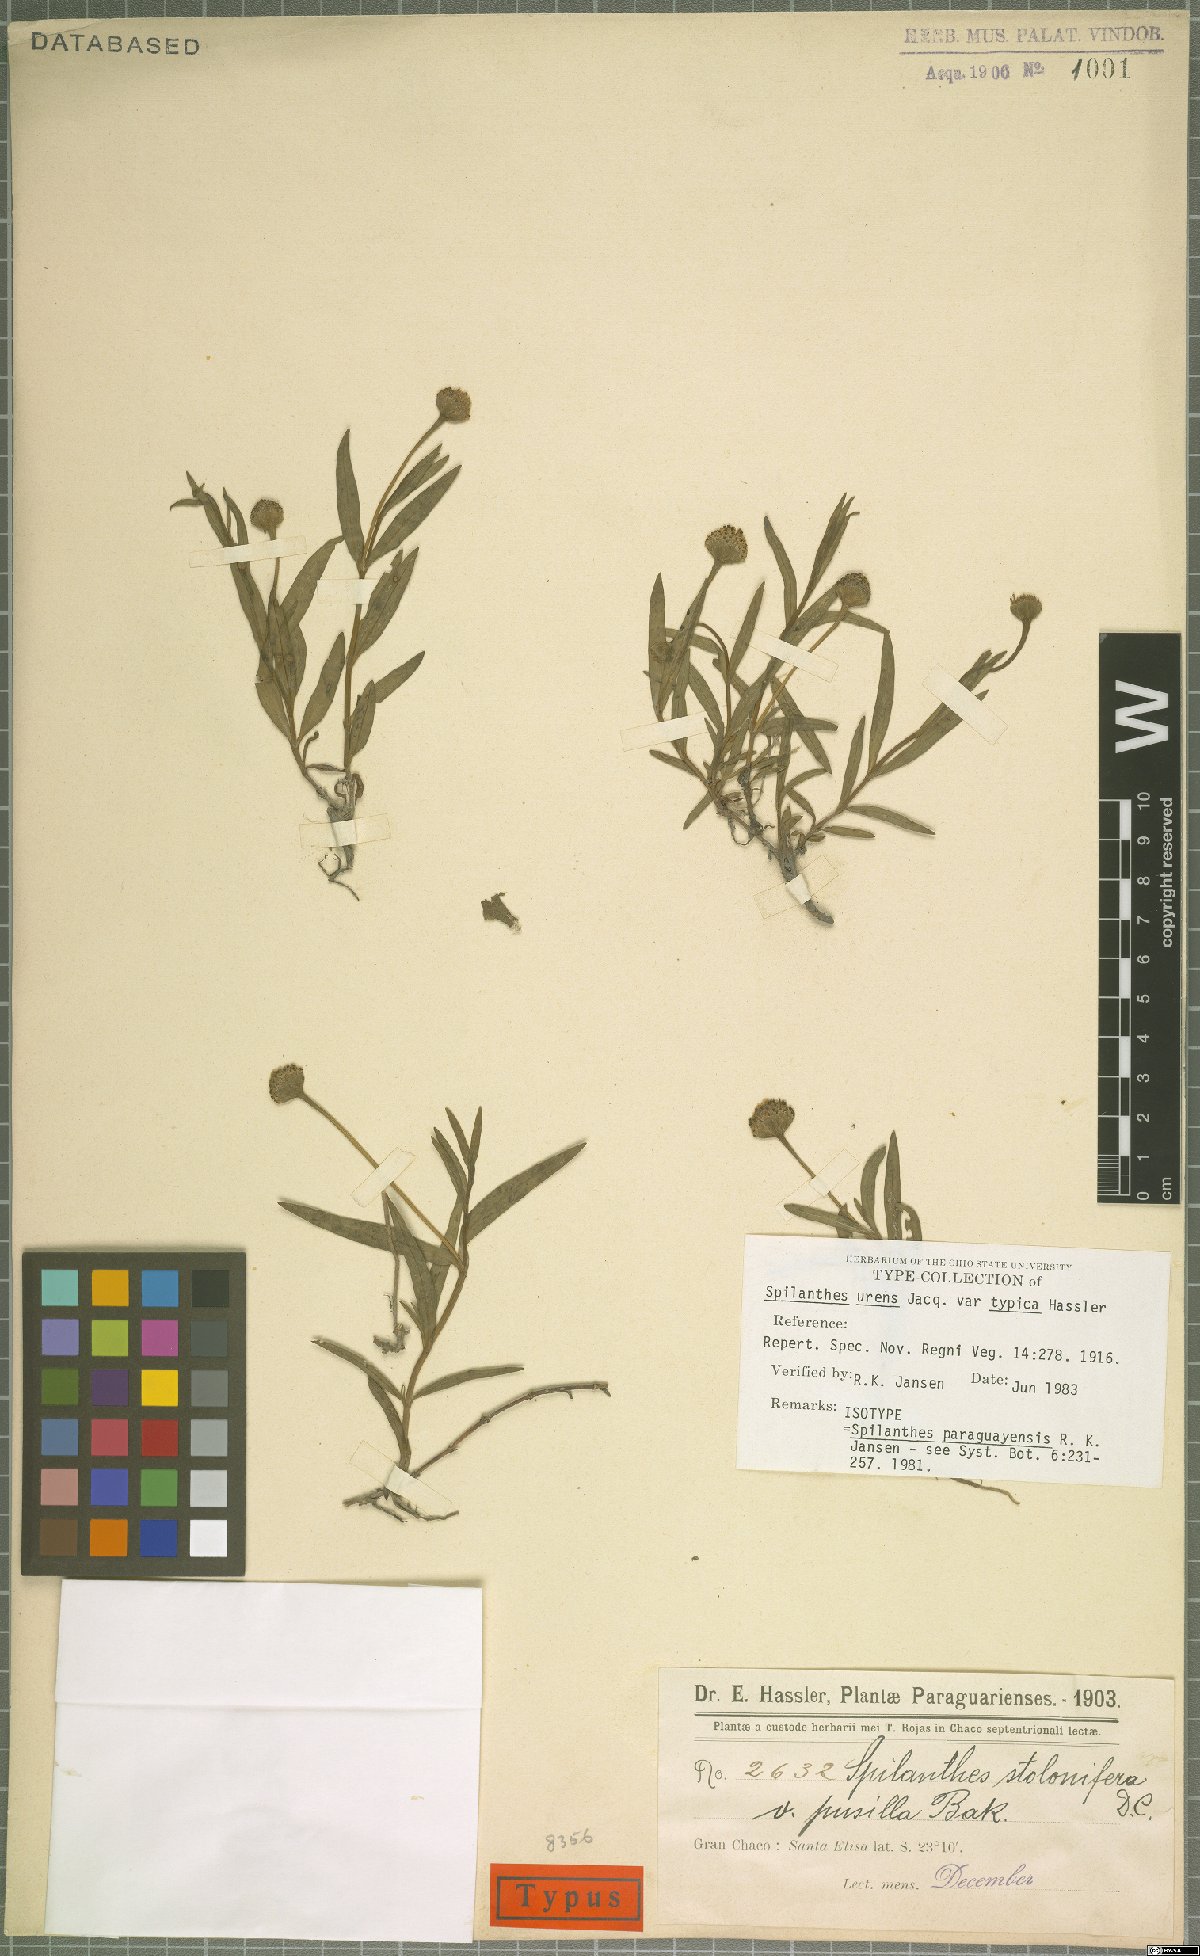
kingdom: Plantae
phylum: Tracheophyta
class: Magnoliopsida
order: Asterales
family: Asteraceae
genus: Spilanthes
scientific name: Spilanthes paraguayensis
